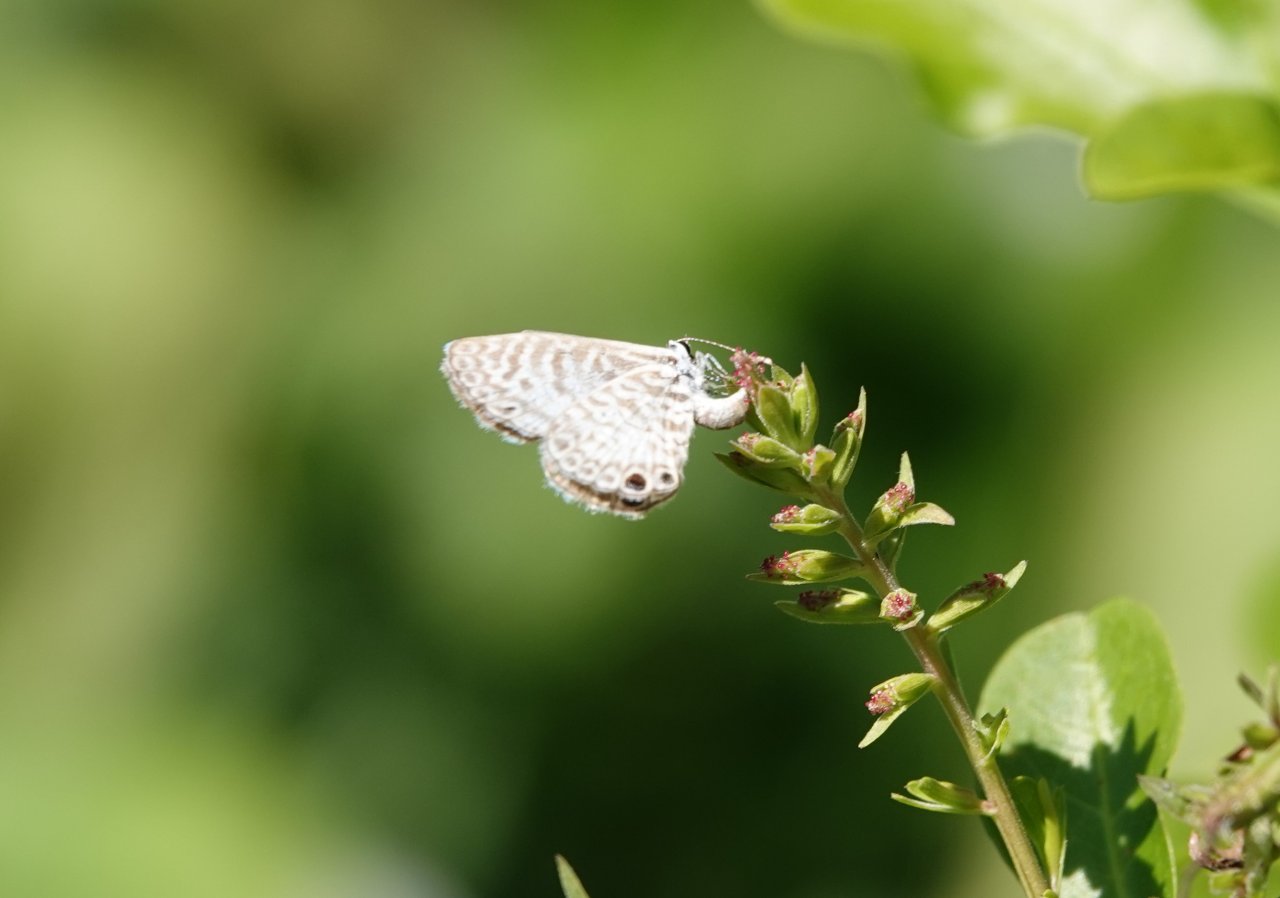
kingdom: Animalia
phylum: Arthropoda
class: Insecta
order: Lepidoptera
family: Lycaenidae
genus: Leptotes
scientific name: Leptotes cassius
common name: Cassius Blue
